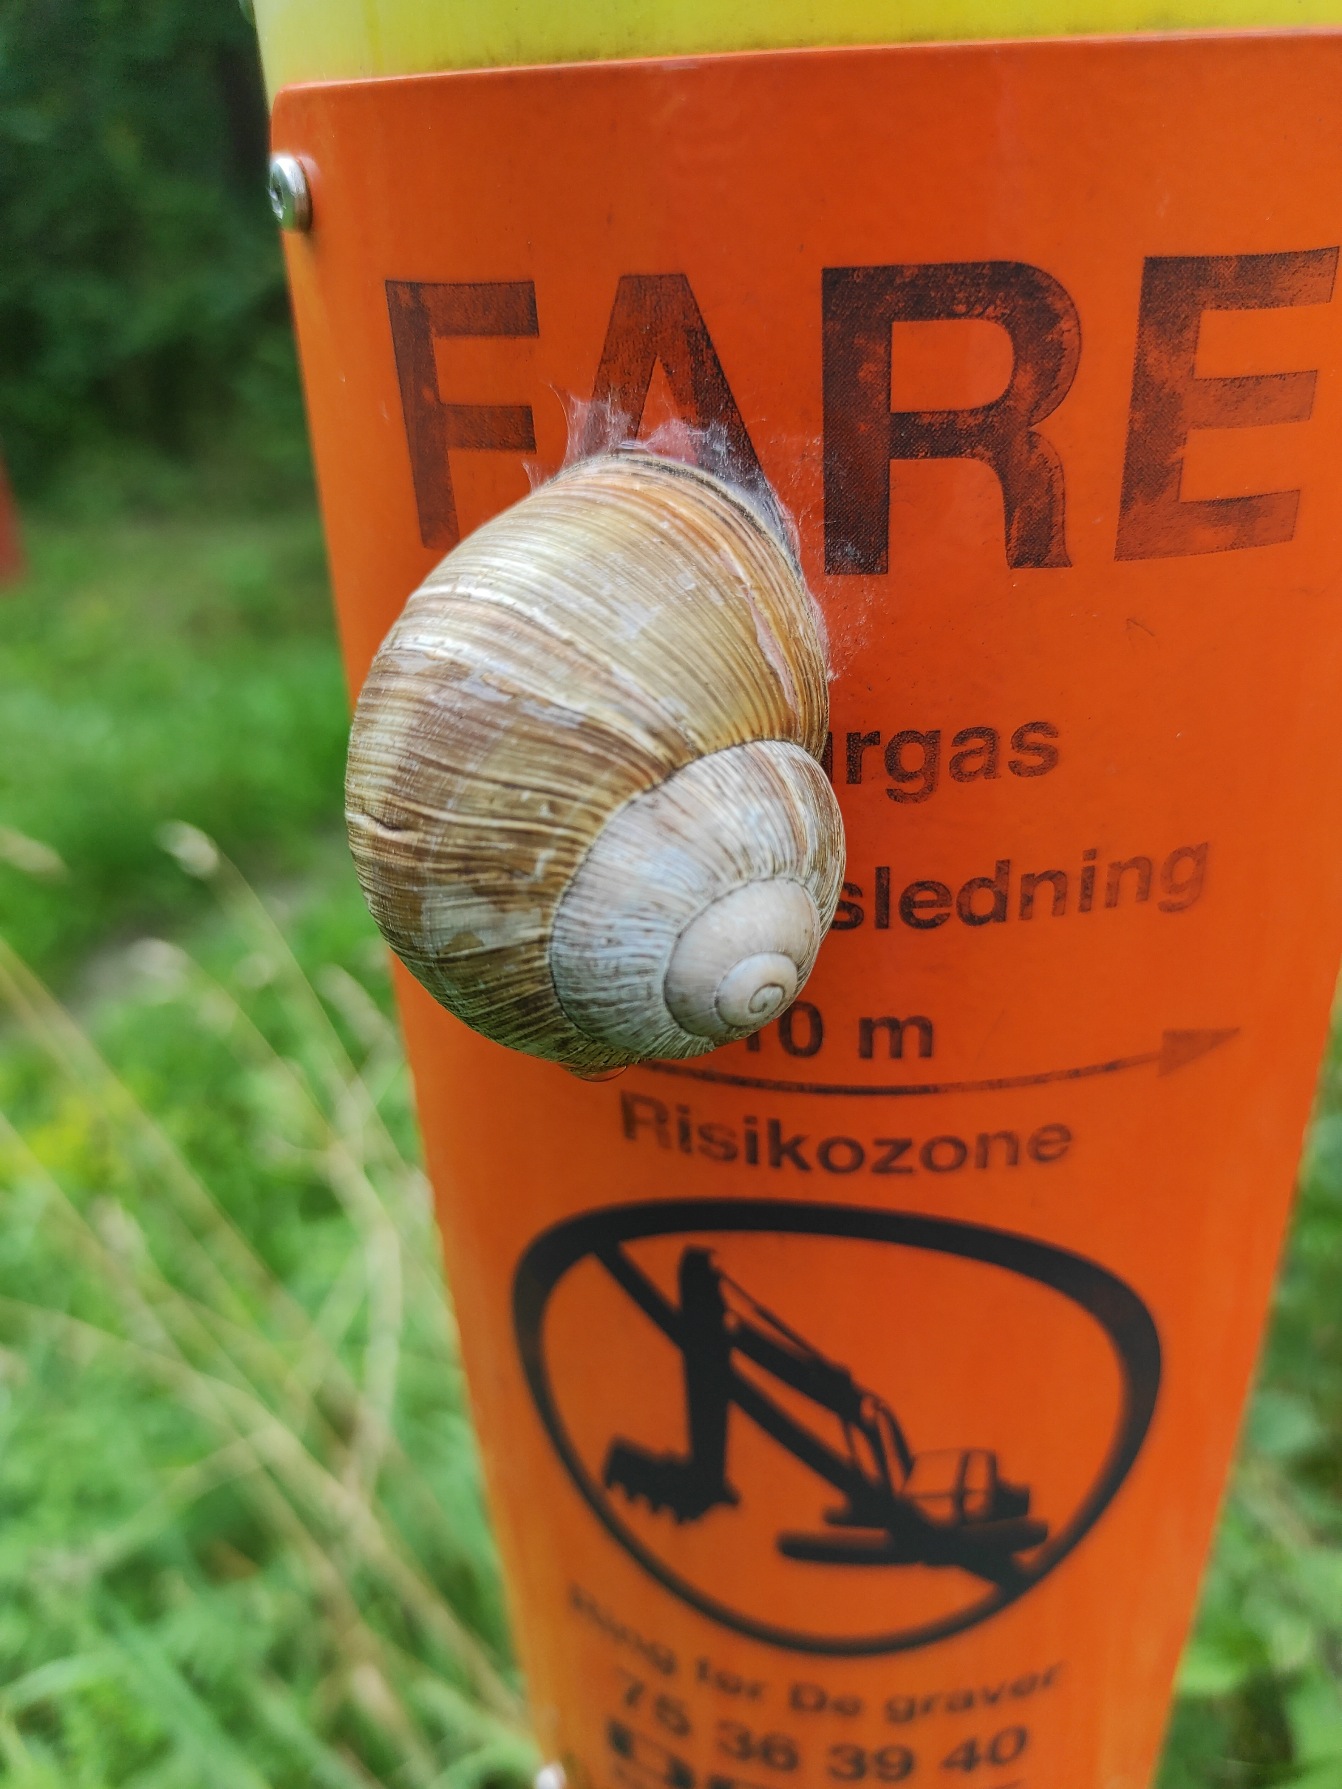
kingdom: Animalia
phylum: Mollusca
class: Gastropoda
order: Stylommatophora
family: Helicidae
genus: Helix
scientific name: Helix pomatia
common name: Vinbjergsnegl
